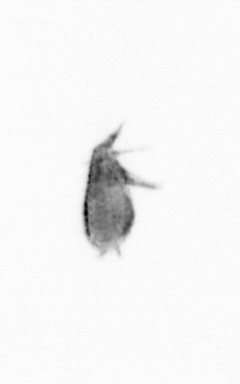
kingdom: Animalia
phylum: Arthropoda
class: Copepoda
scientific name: Copepoda
